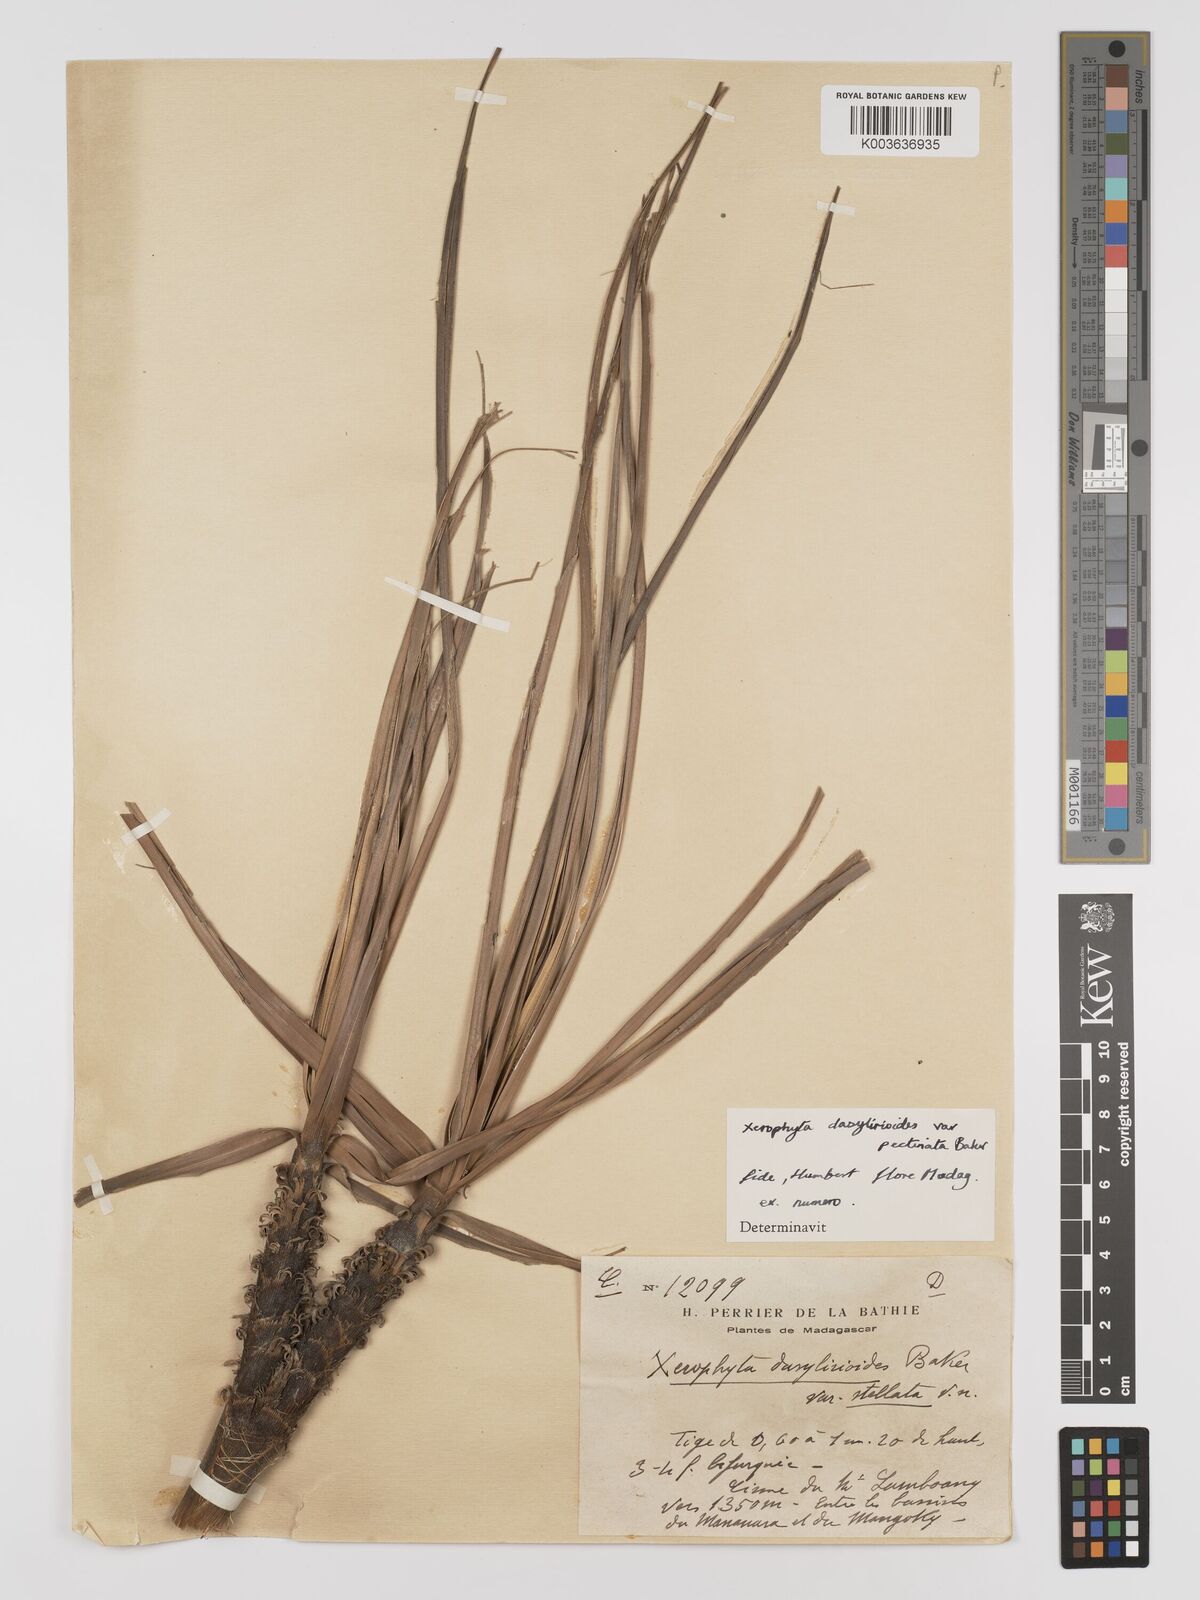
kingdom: Plantae
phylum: Tracheophyta
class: Liliopsida
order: Pandanales
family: Velloziaceae
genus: Xerophyta
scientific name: Xerophyta pectinata
